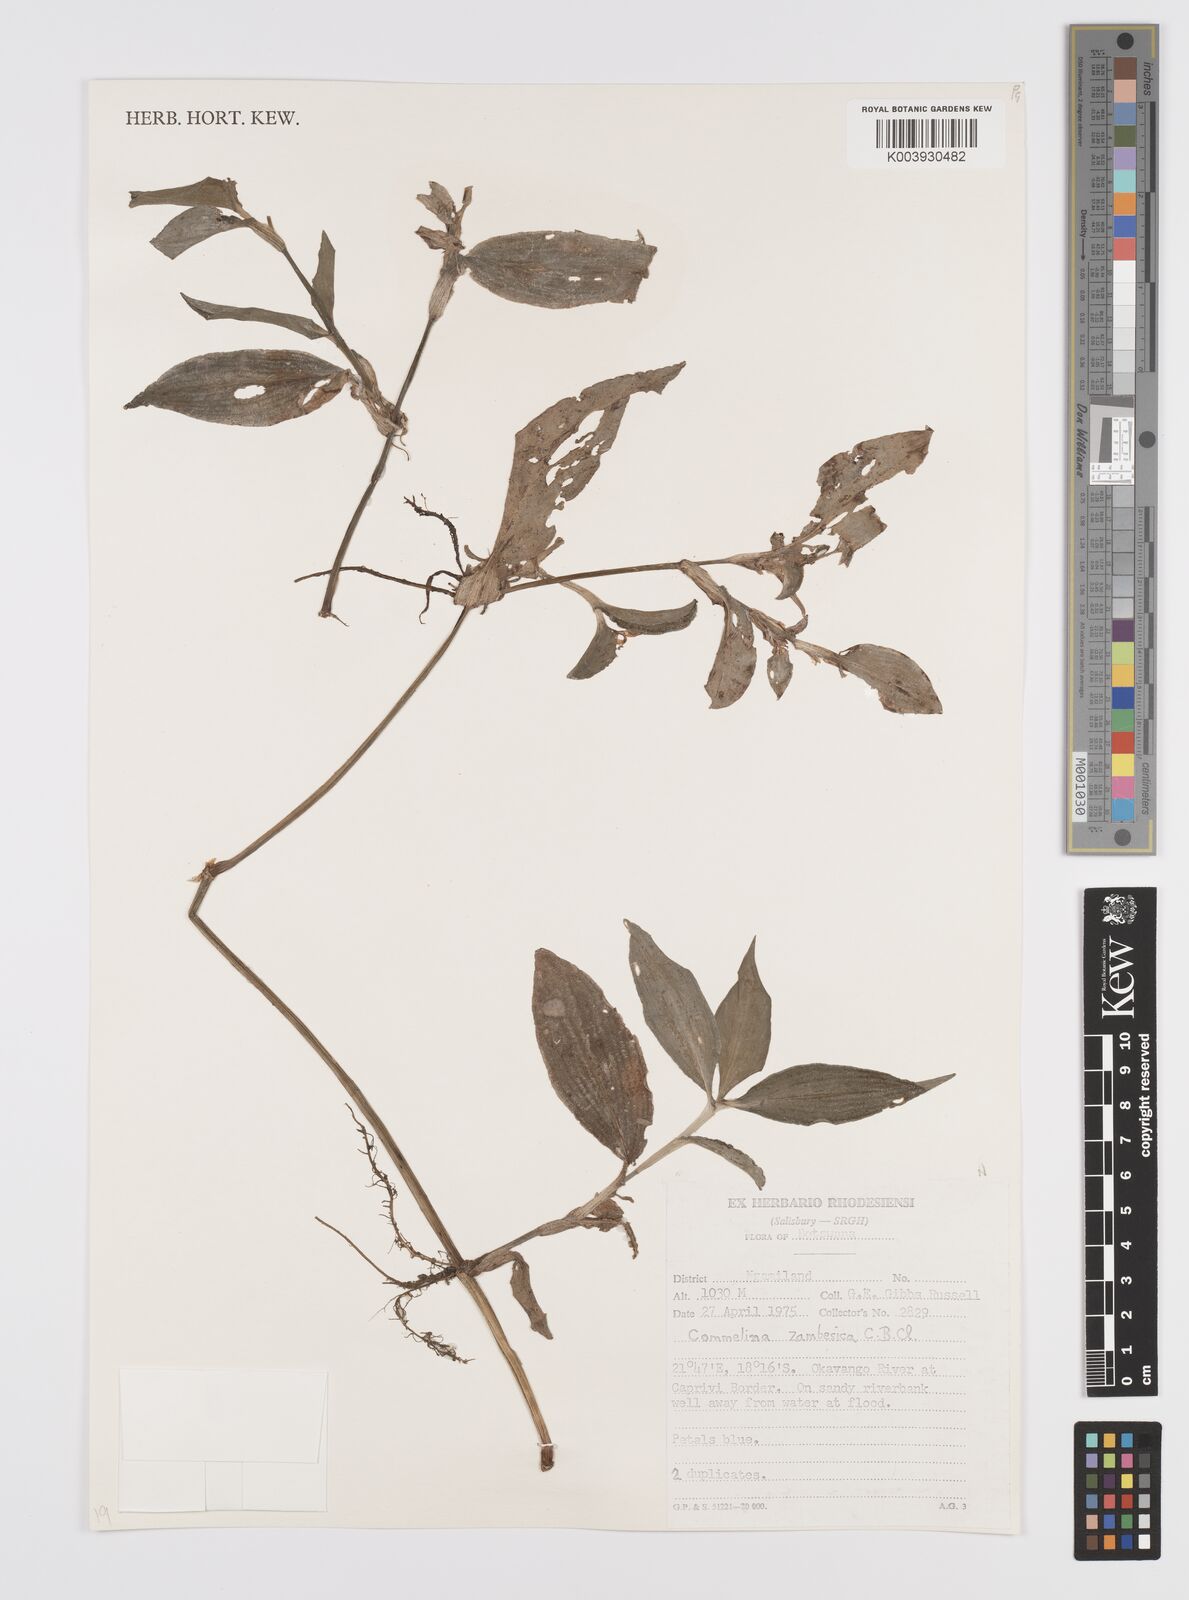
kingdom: Plantae
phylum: Tracheophyta
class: Liliopsida
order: Commelinales
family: Commelinaceae
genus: Commelina
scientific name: Commelina zambesica
